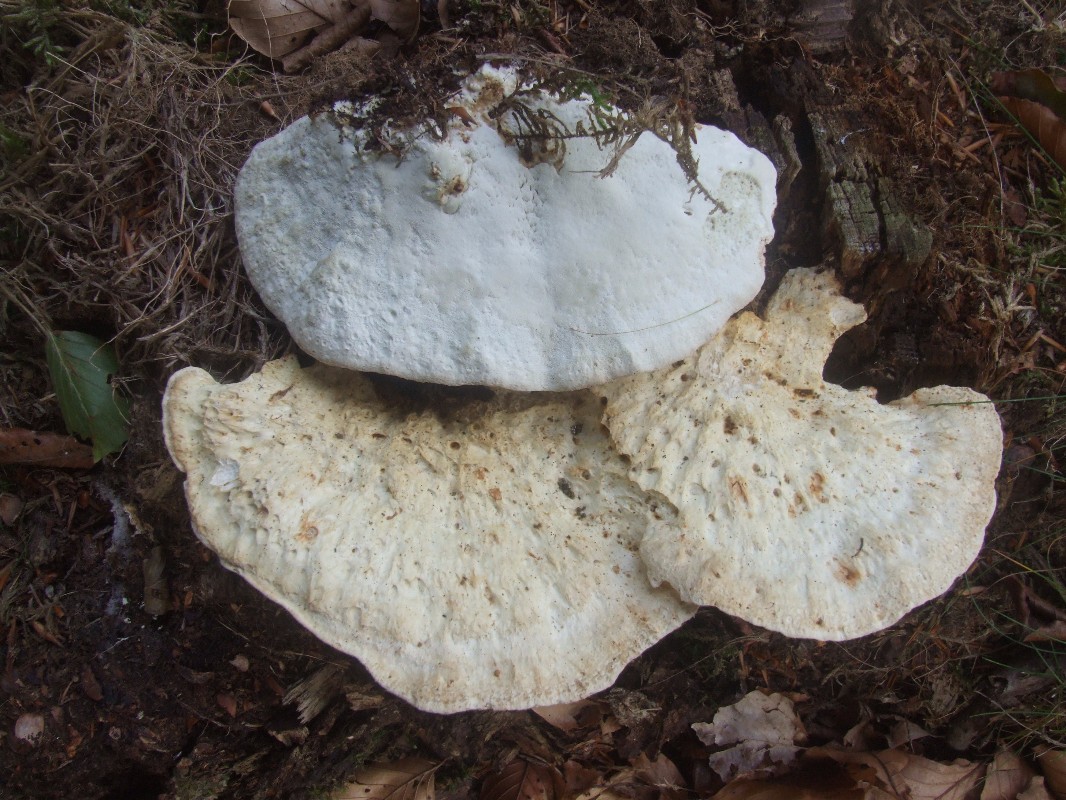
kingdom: Fungi
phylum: Basidiomycota
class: Agaricomycetes
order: Polyporales
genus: Calcipostia
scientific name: Calcipostia guttulata
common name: dråbe-kødporesvamp
